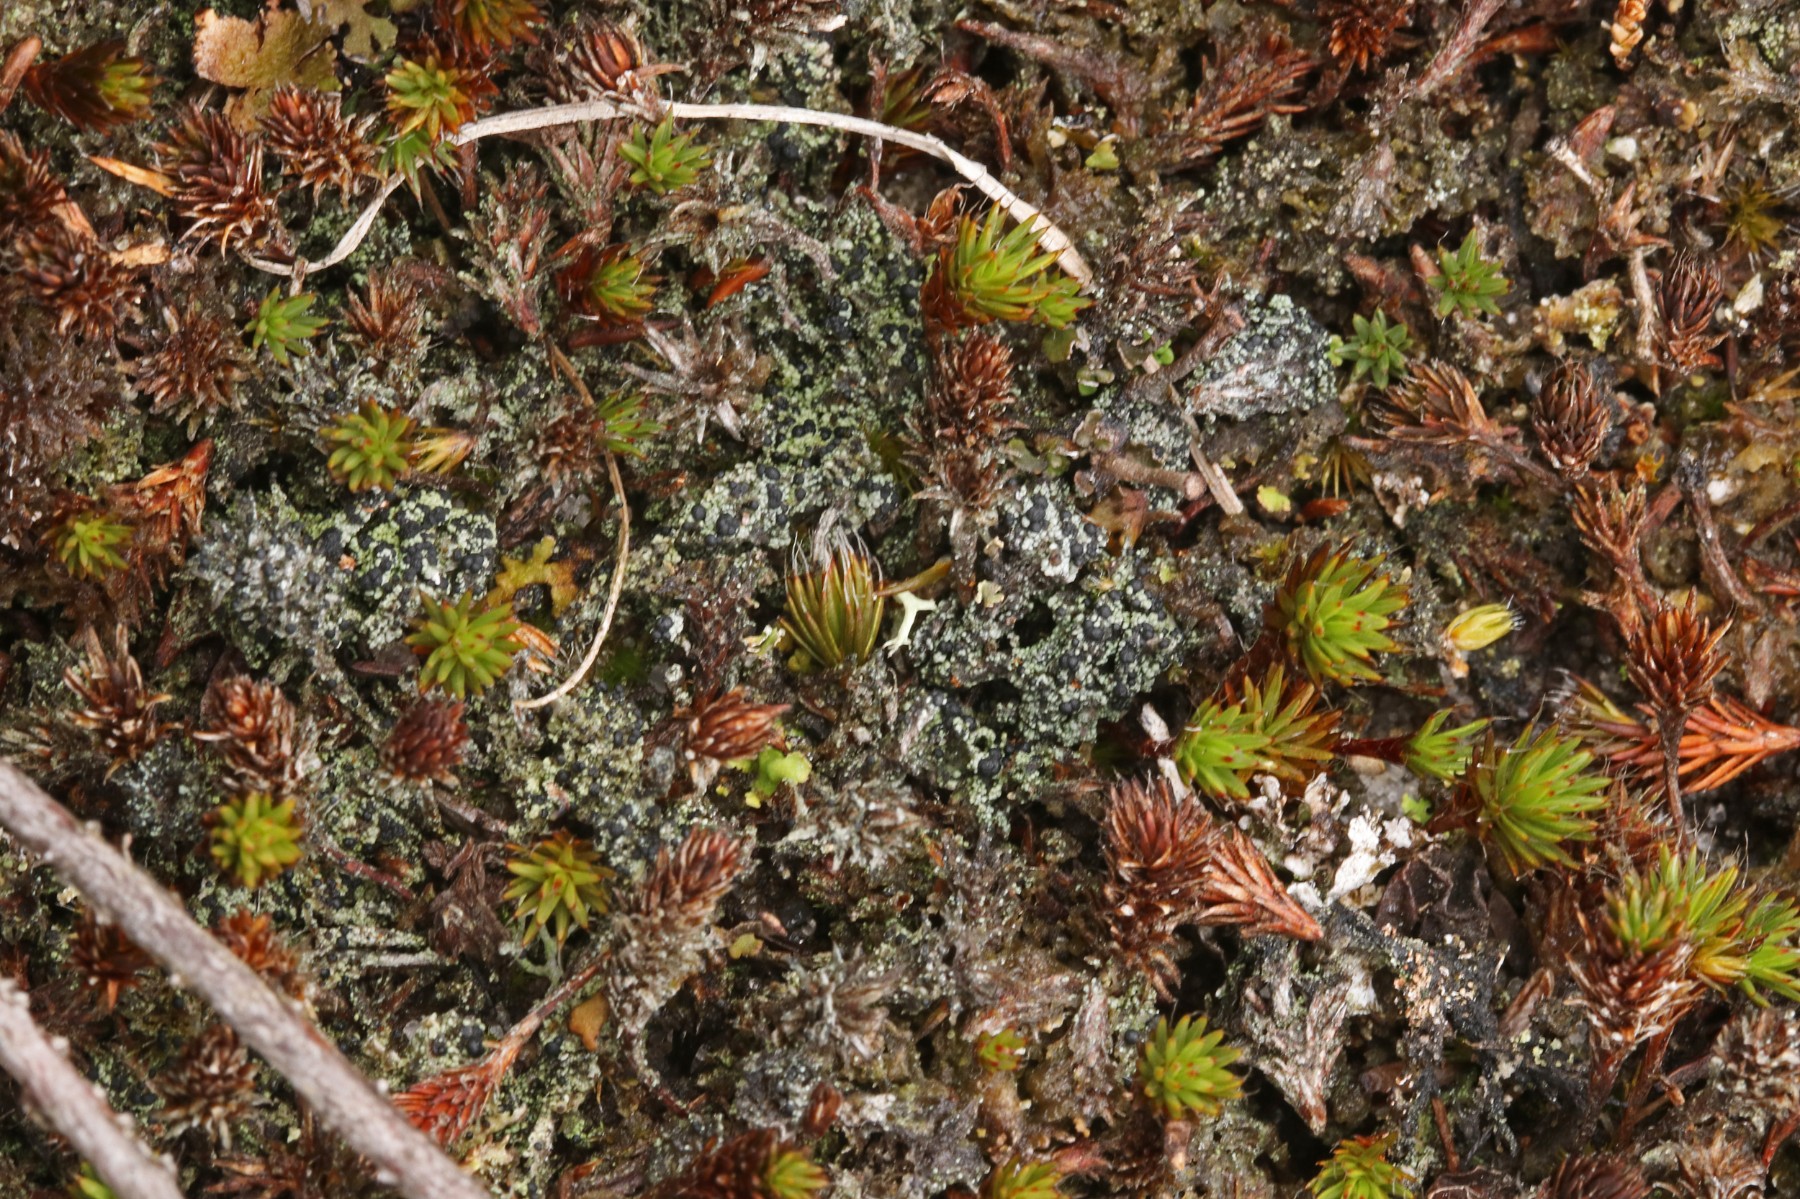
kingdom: Fungi
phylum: Ascomycota
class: Lecanoromycetes
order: Lecanorales
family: Byssolomataceae
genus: Micarea
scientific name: Micarea lignaria
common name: tørve-knaplav
